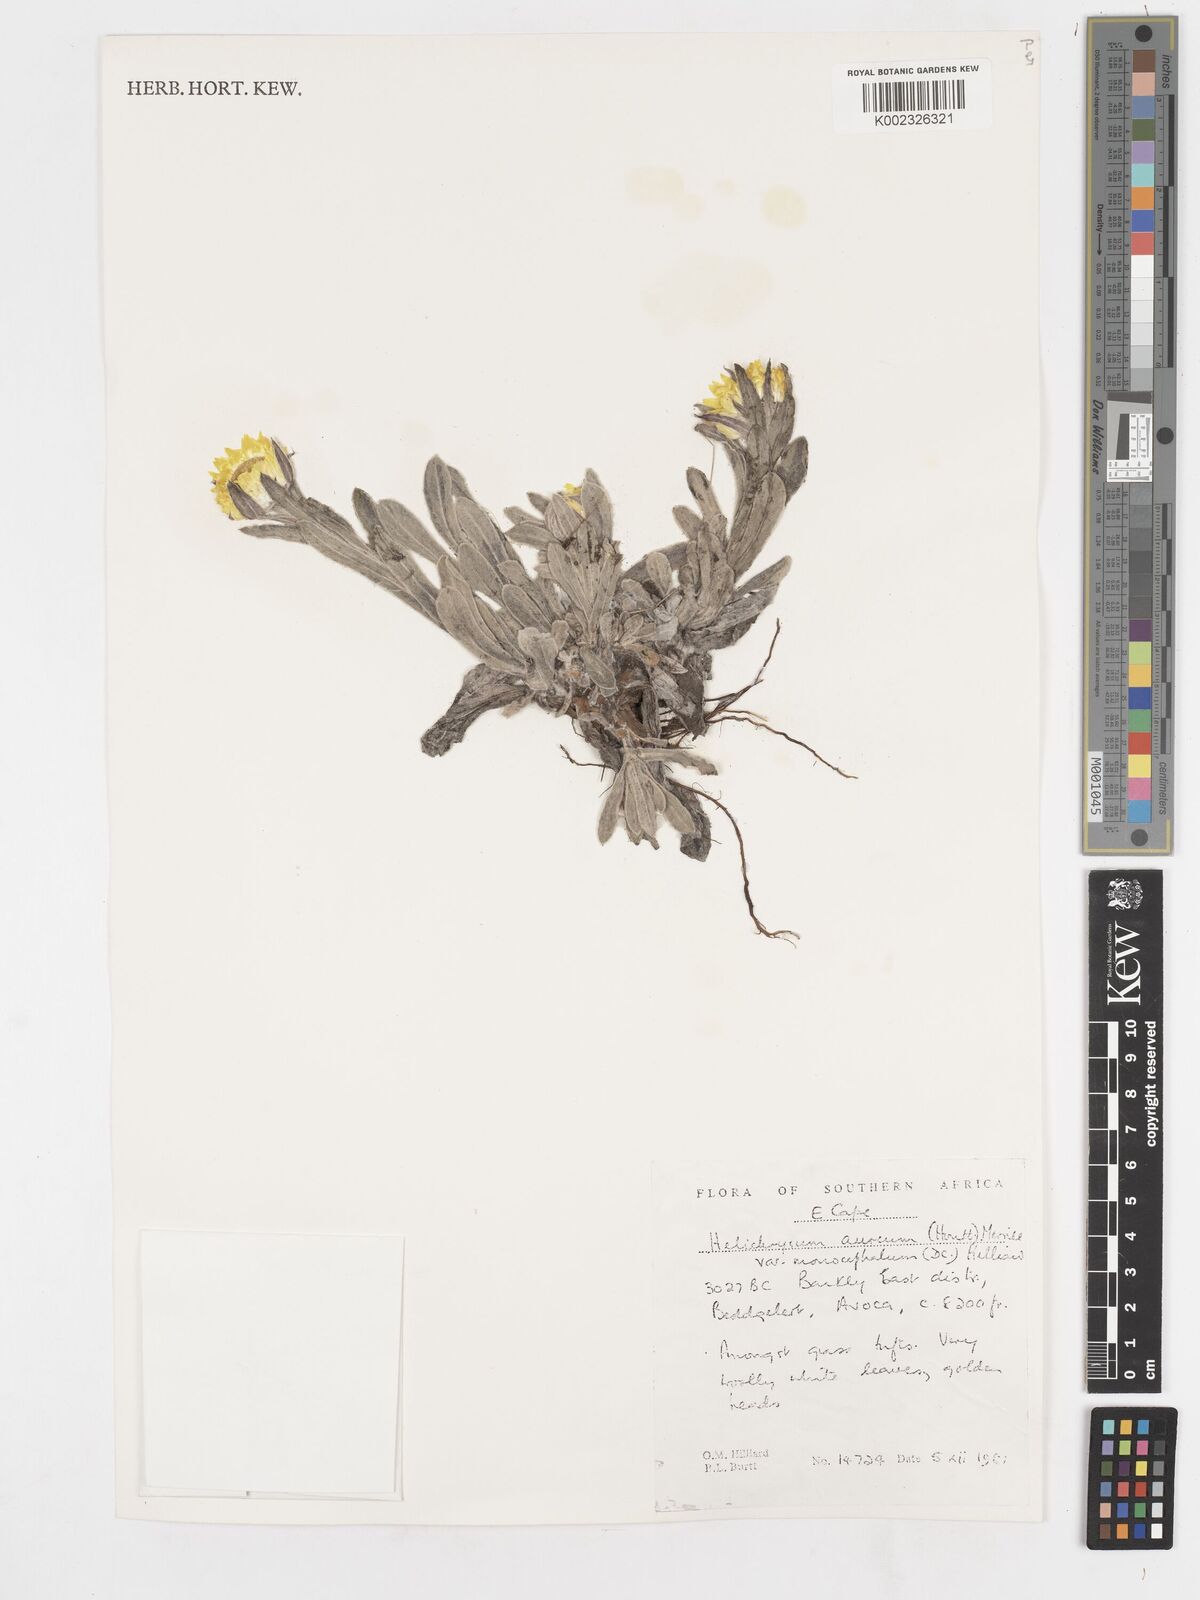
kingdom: Plantae
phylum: Tracheophyta
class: Magnoliopsida
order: Asterales
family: Asteraceae
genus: Helichrysum
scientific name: Helichrysum aureum
